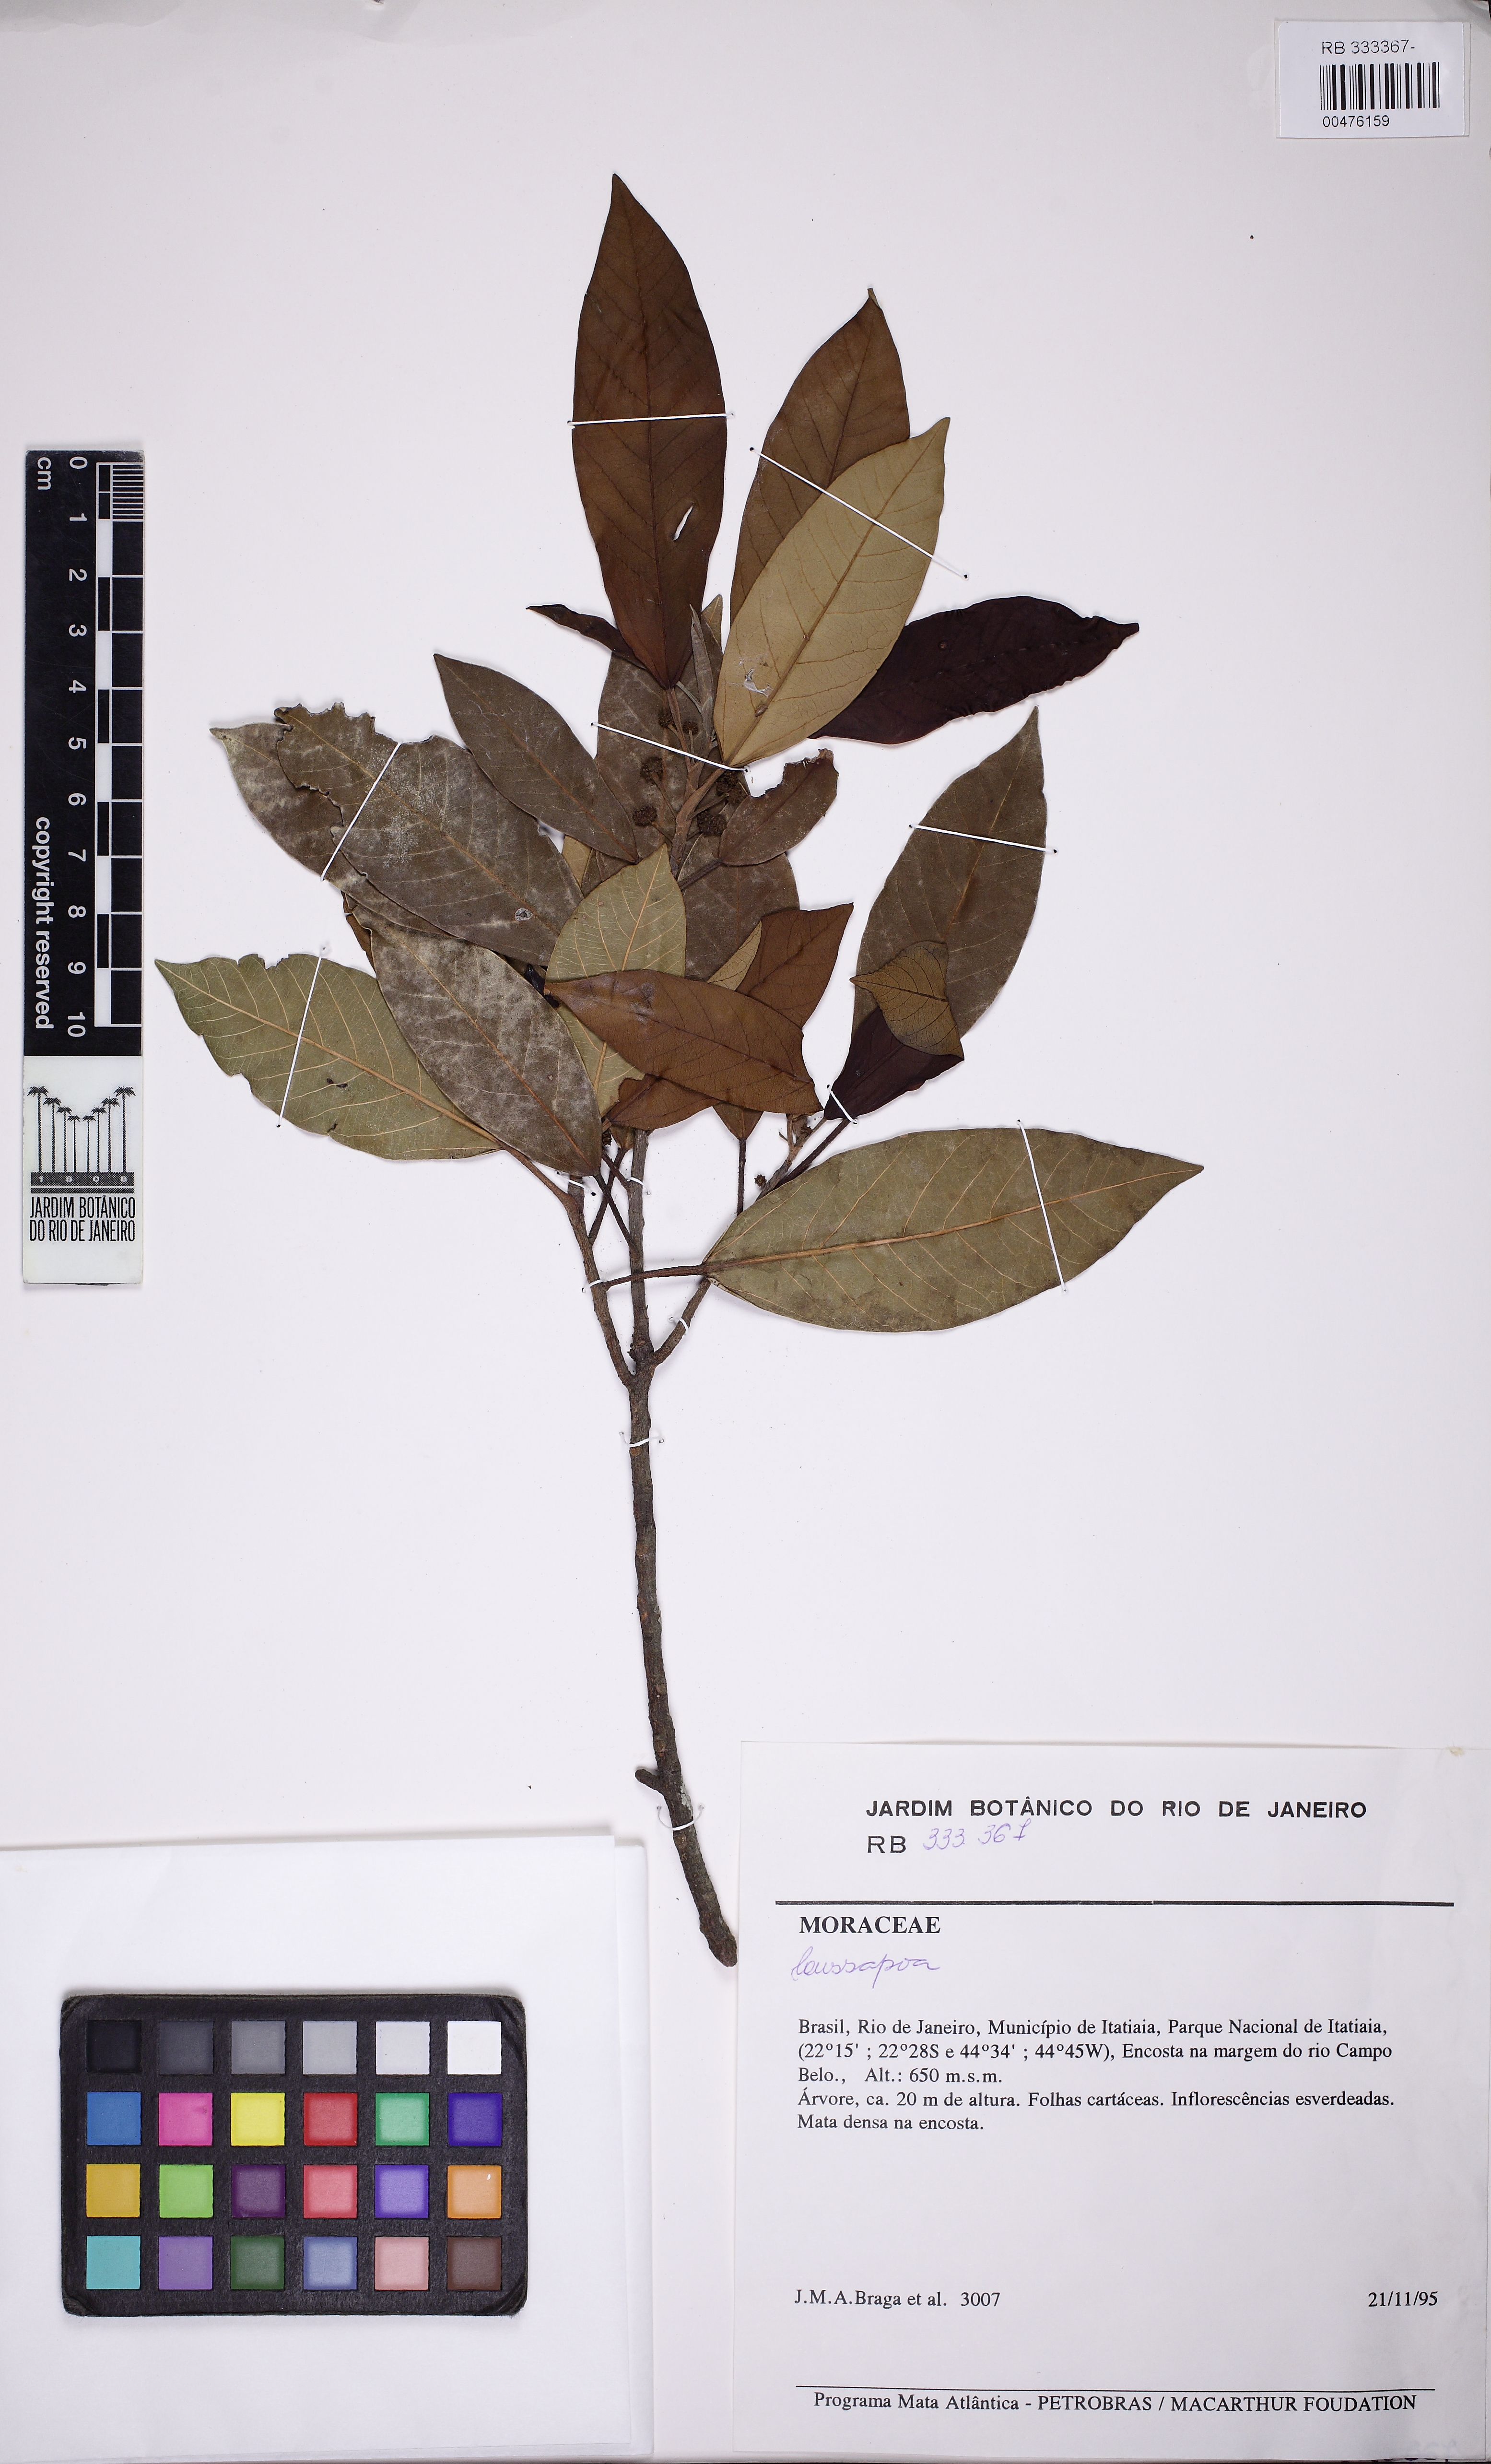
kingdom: Plantae
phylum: Tracheophyta
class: Magnoliopsida
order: Rosales
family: Urticaceae
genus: Coussapoa
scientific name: Coussapoa
